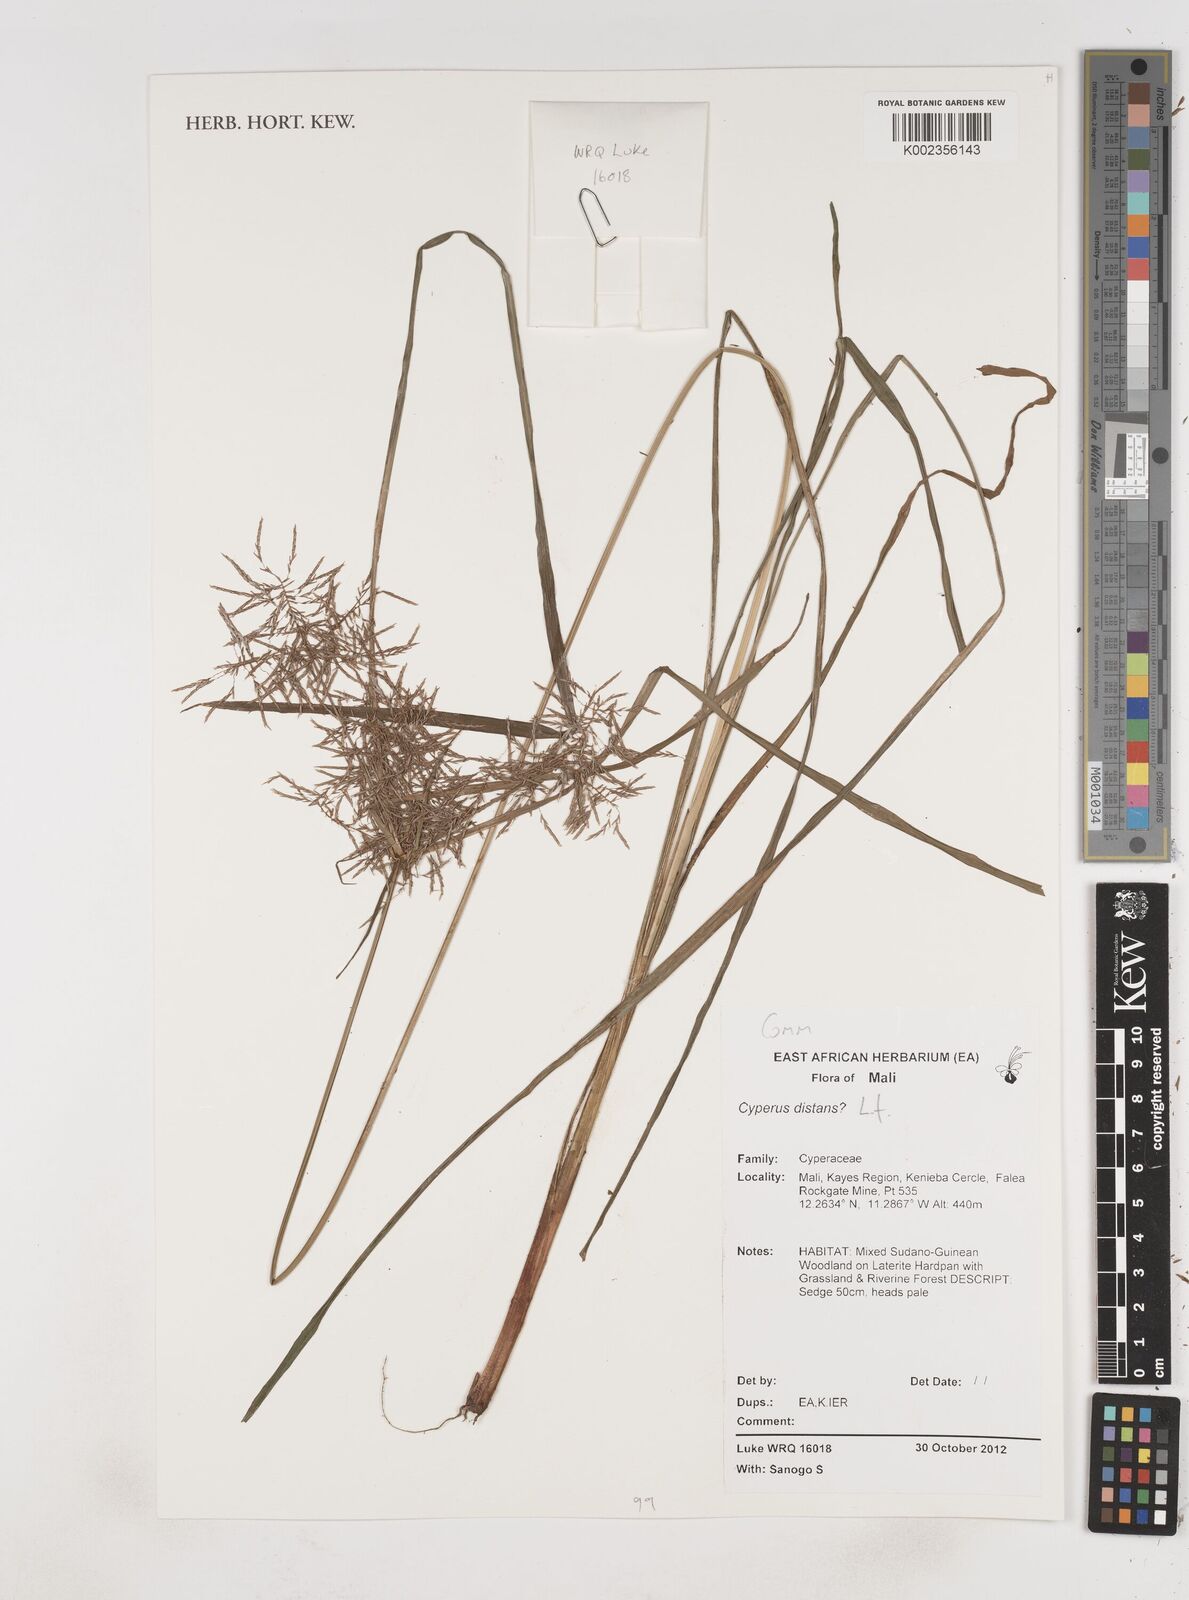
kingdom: Plantae
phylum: Tracheophyta
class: Liliopsida
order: Poales
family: Cyperaceae
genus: Cyperus
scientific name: Cyperus distans
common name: Slender cyperus
